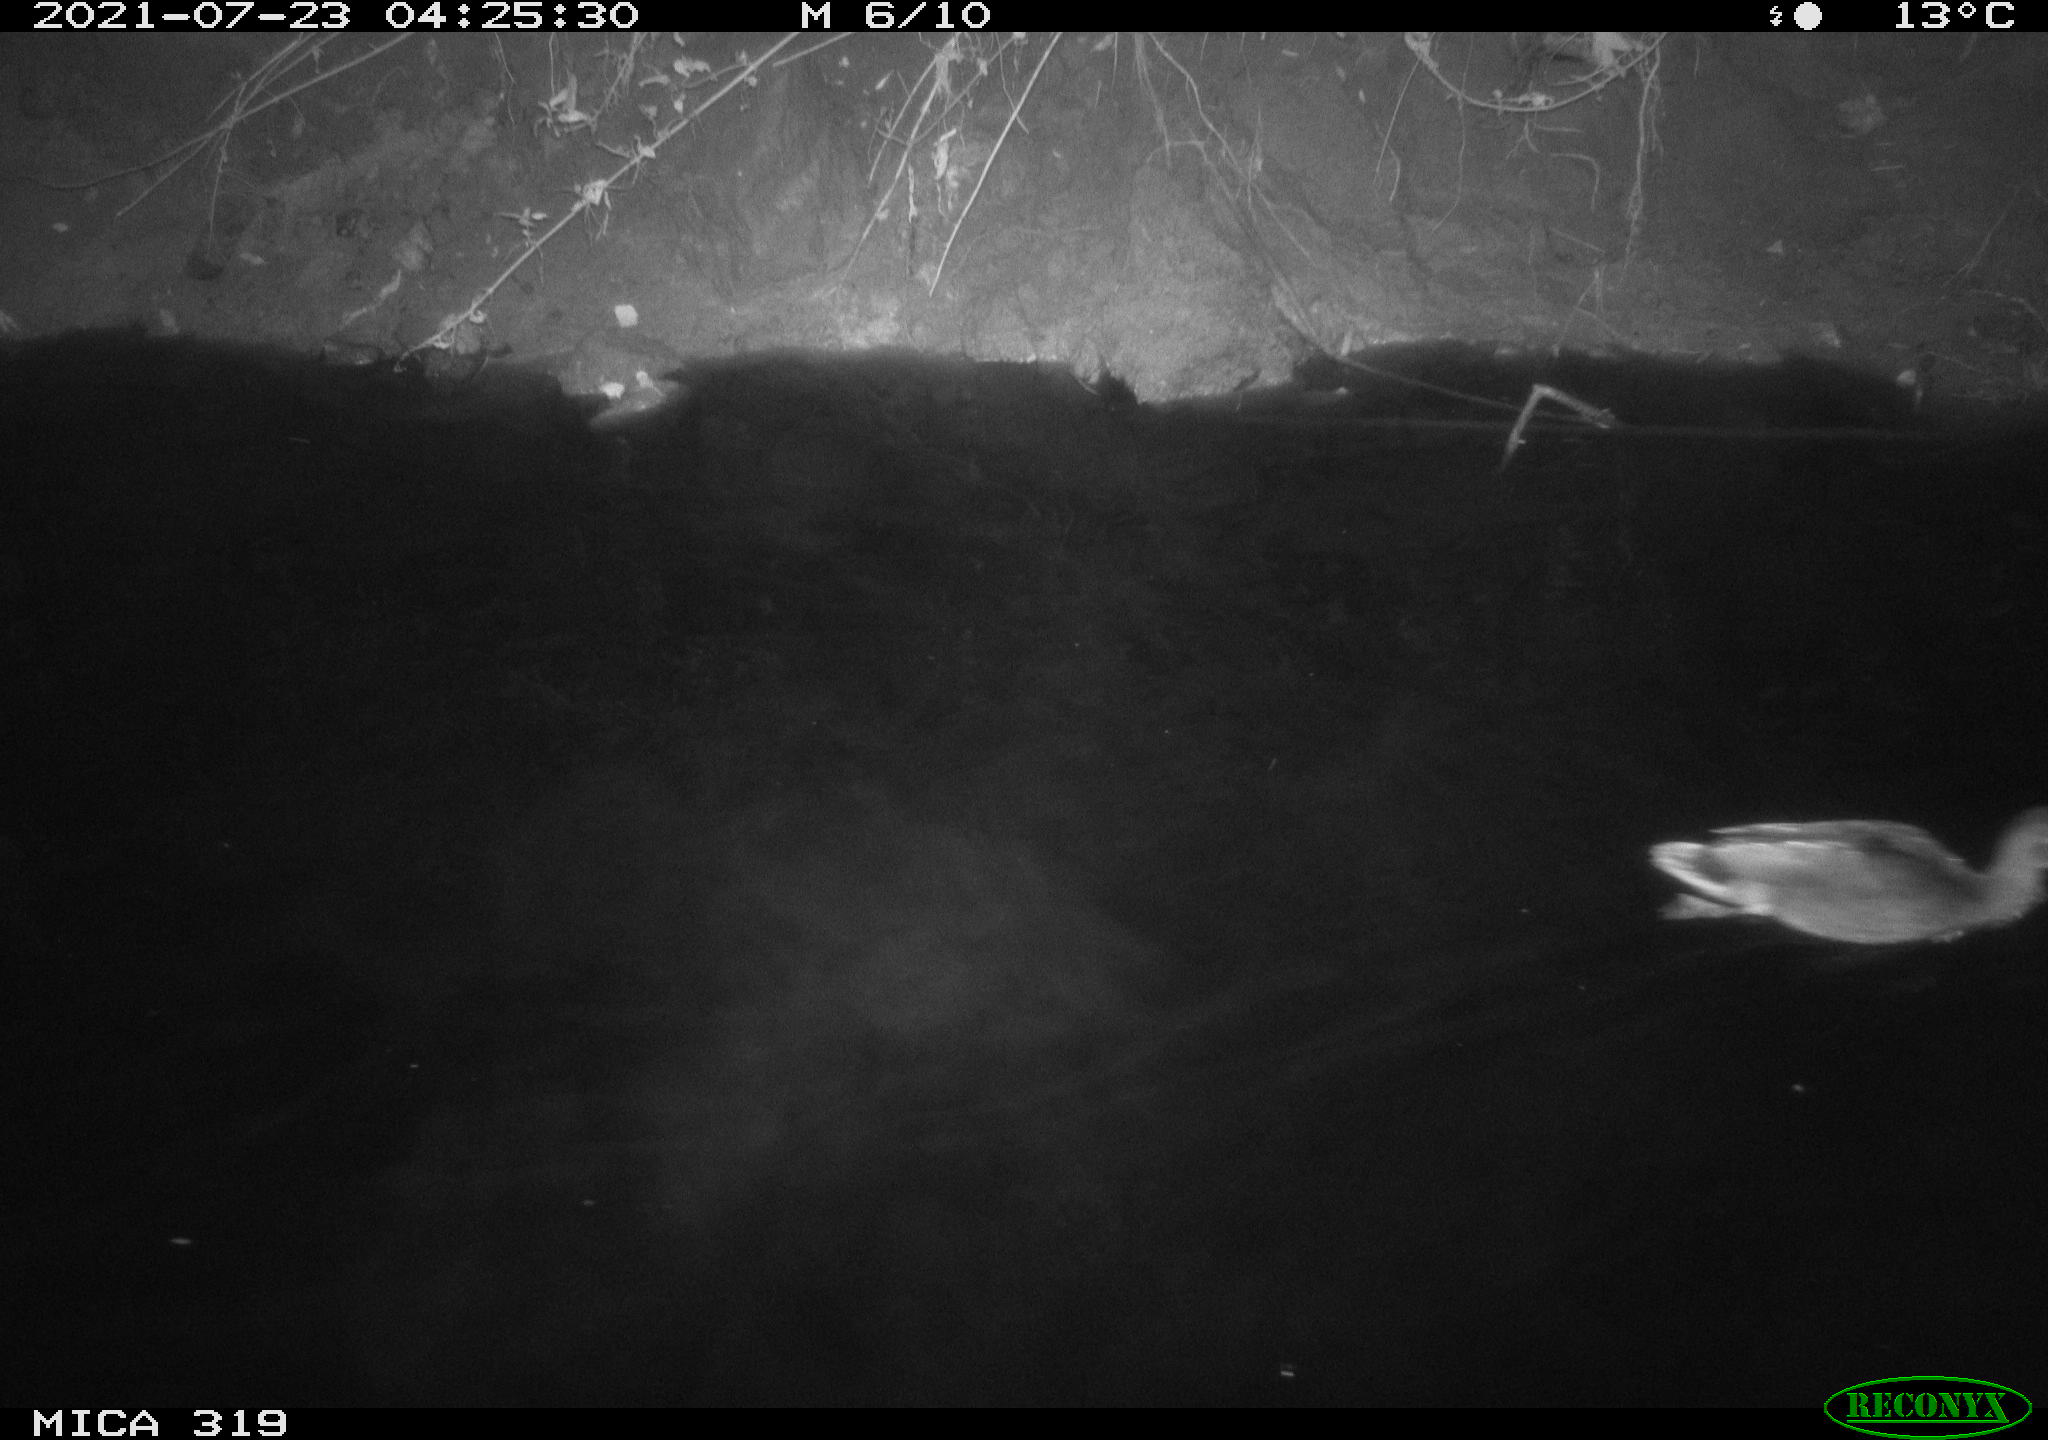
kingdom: Animalia
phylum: Chordata
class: Aves
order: Anseriformes
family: Anatidae
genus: Anas
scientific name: Anas platyrhynchos
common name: Mallard
